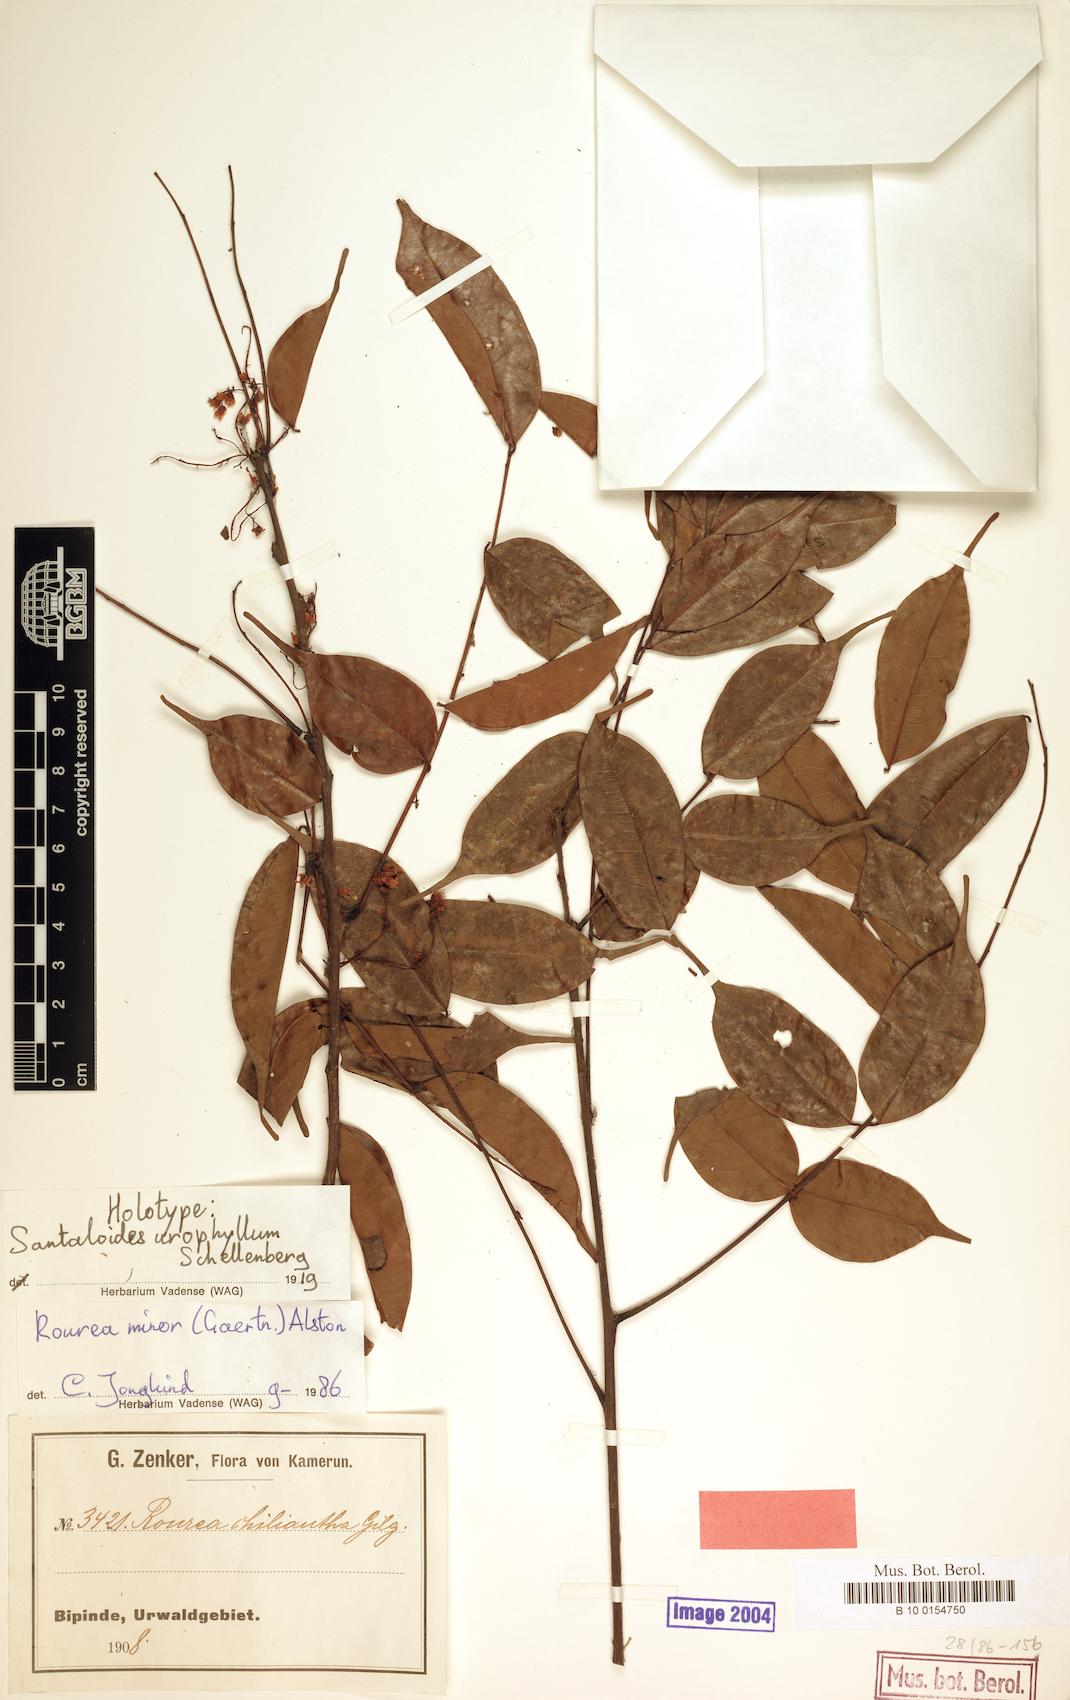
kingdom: Plantae
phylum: Tracheophyta
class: Magnoliopsida
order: Oxalidales
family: Connaraceae
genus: Rourea
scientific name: Rourea minor
